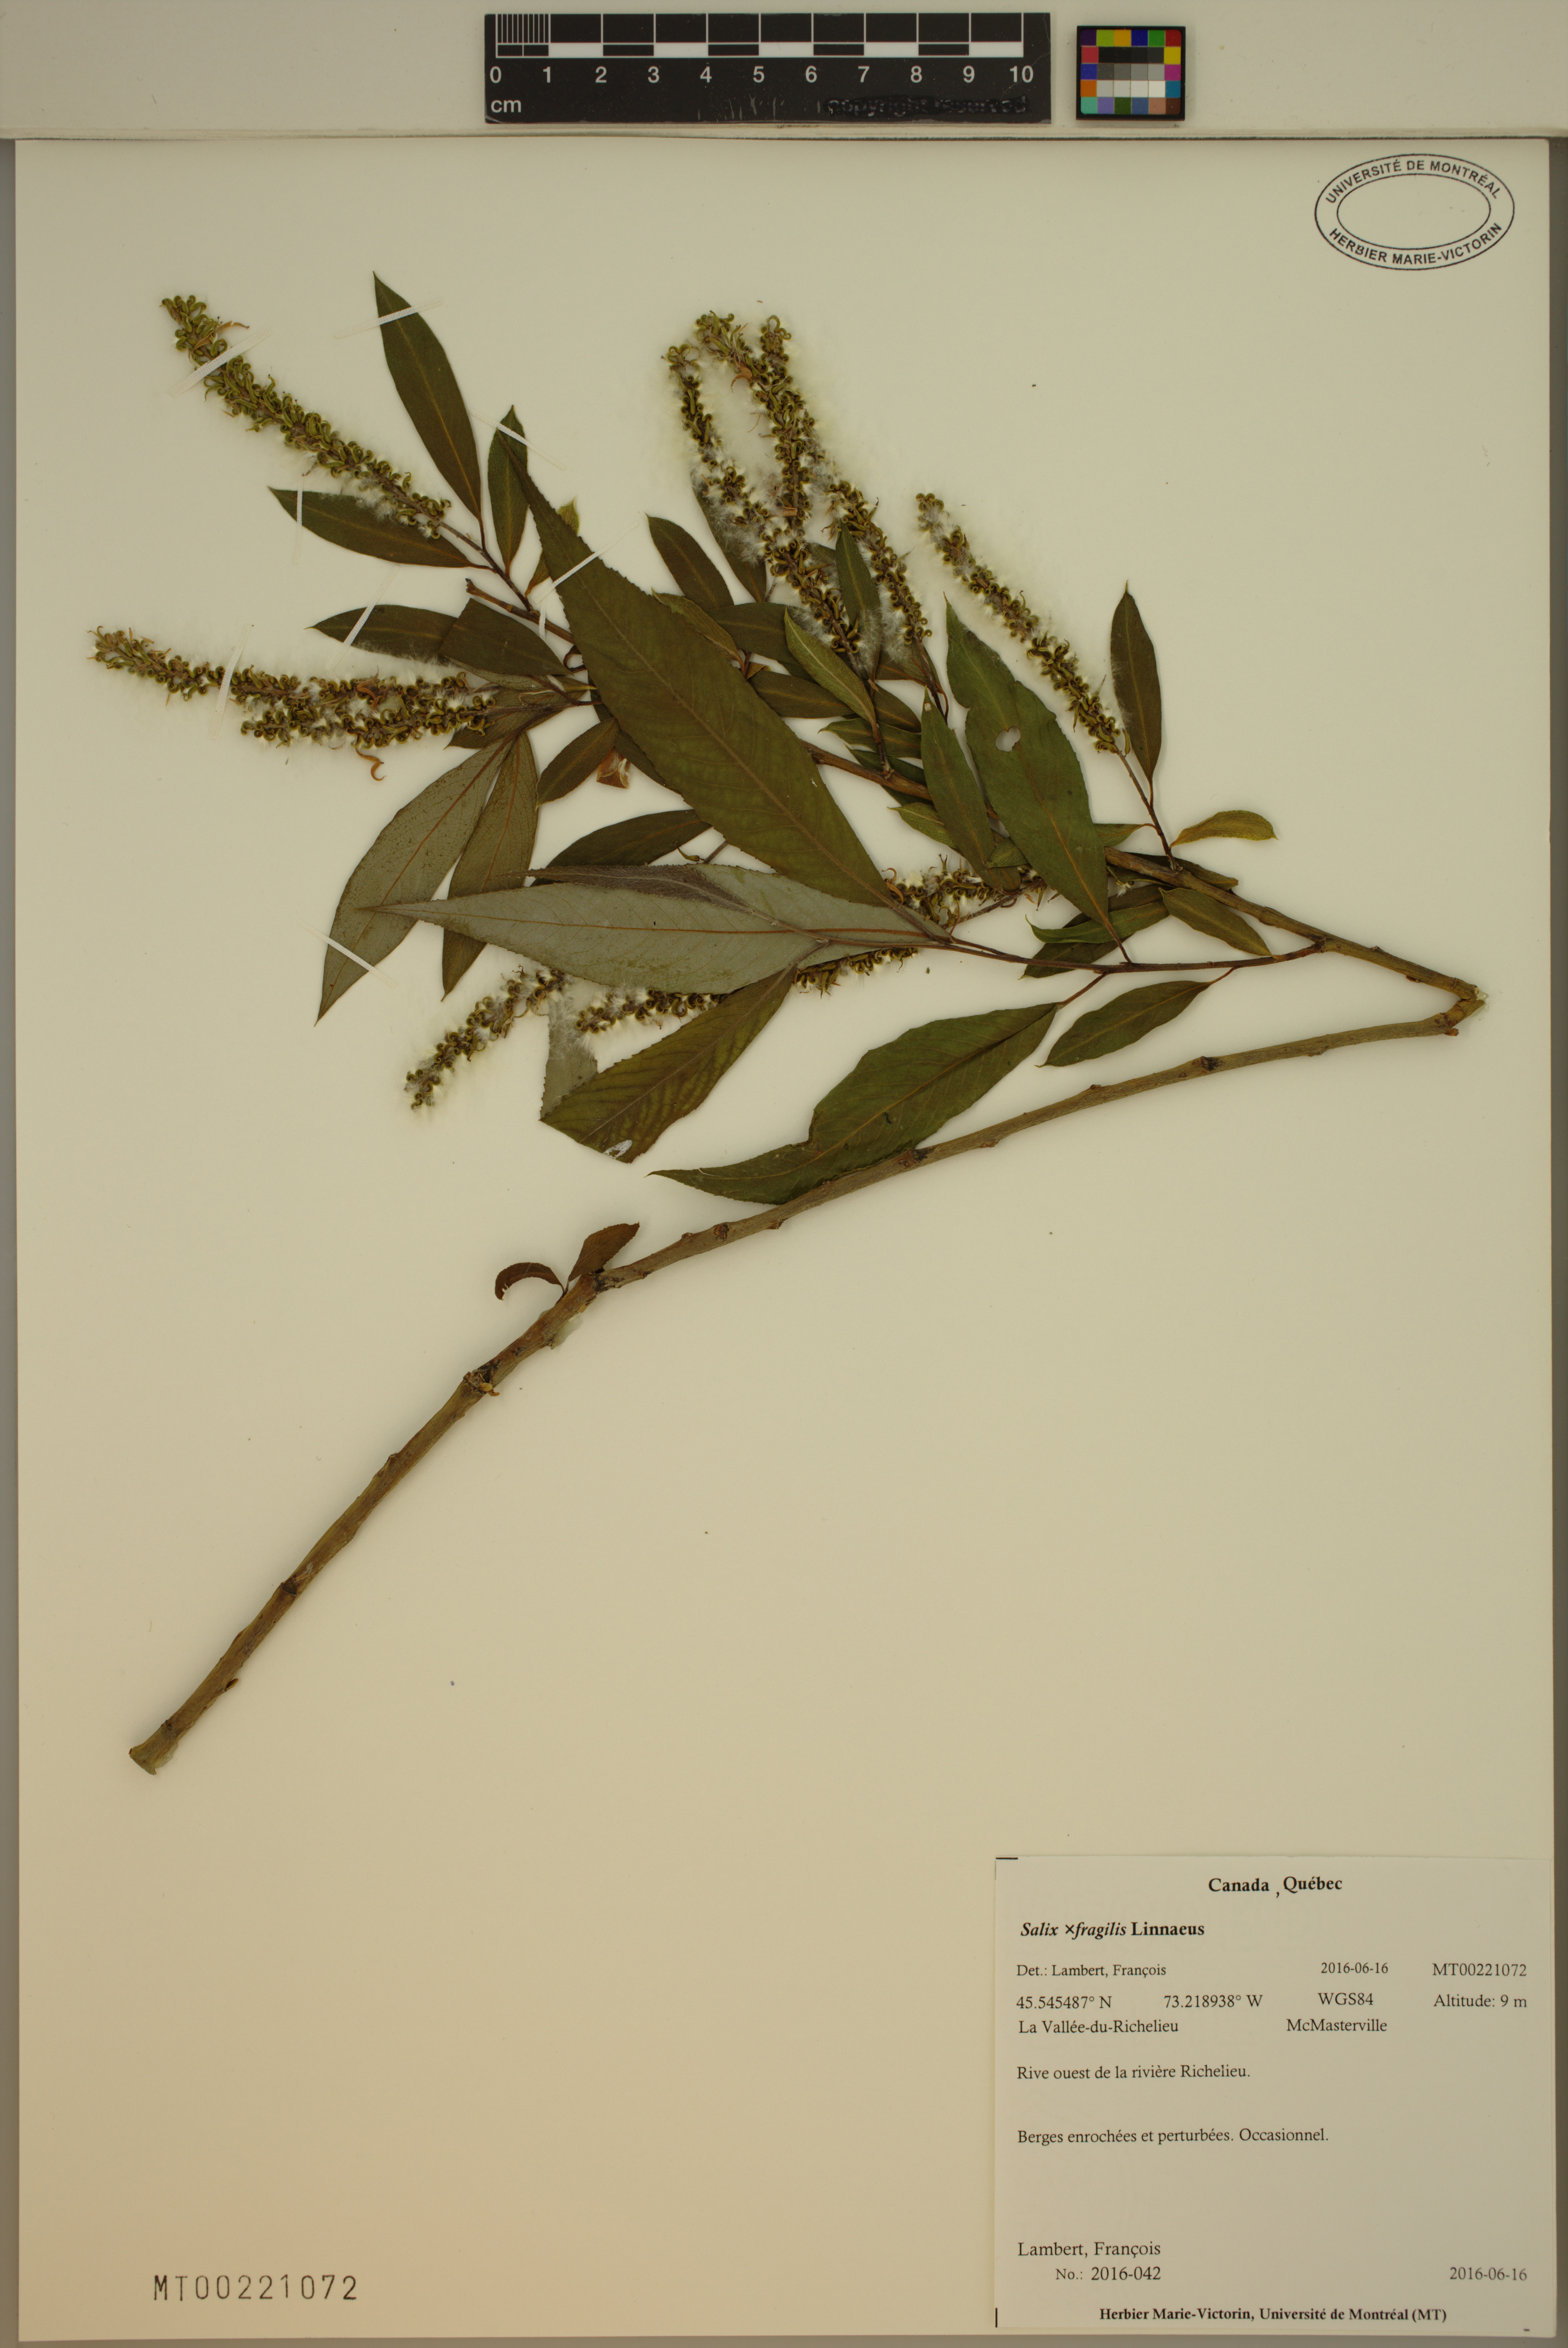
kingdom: Plantae
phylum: Tracheophyta
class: Magnoliopsida
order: Malpighiales
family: Salicaceae
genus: Salix
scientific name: Salix fragilis
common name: Crack willow
